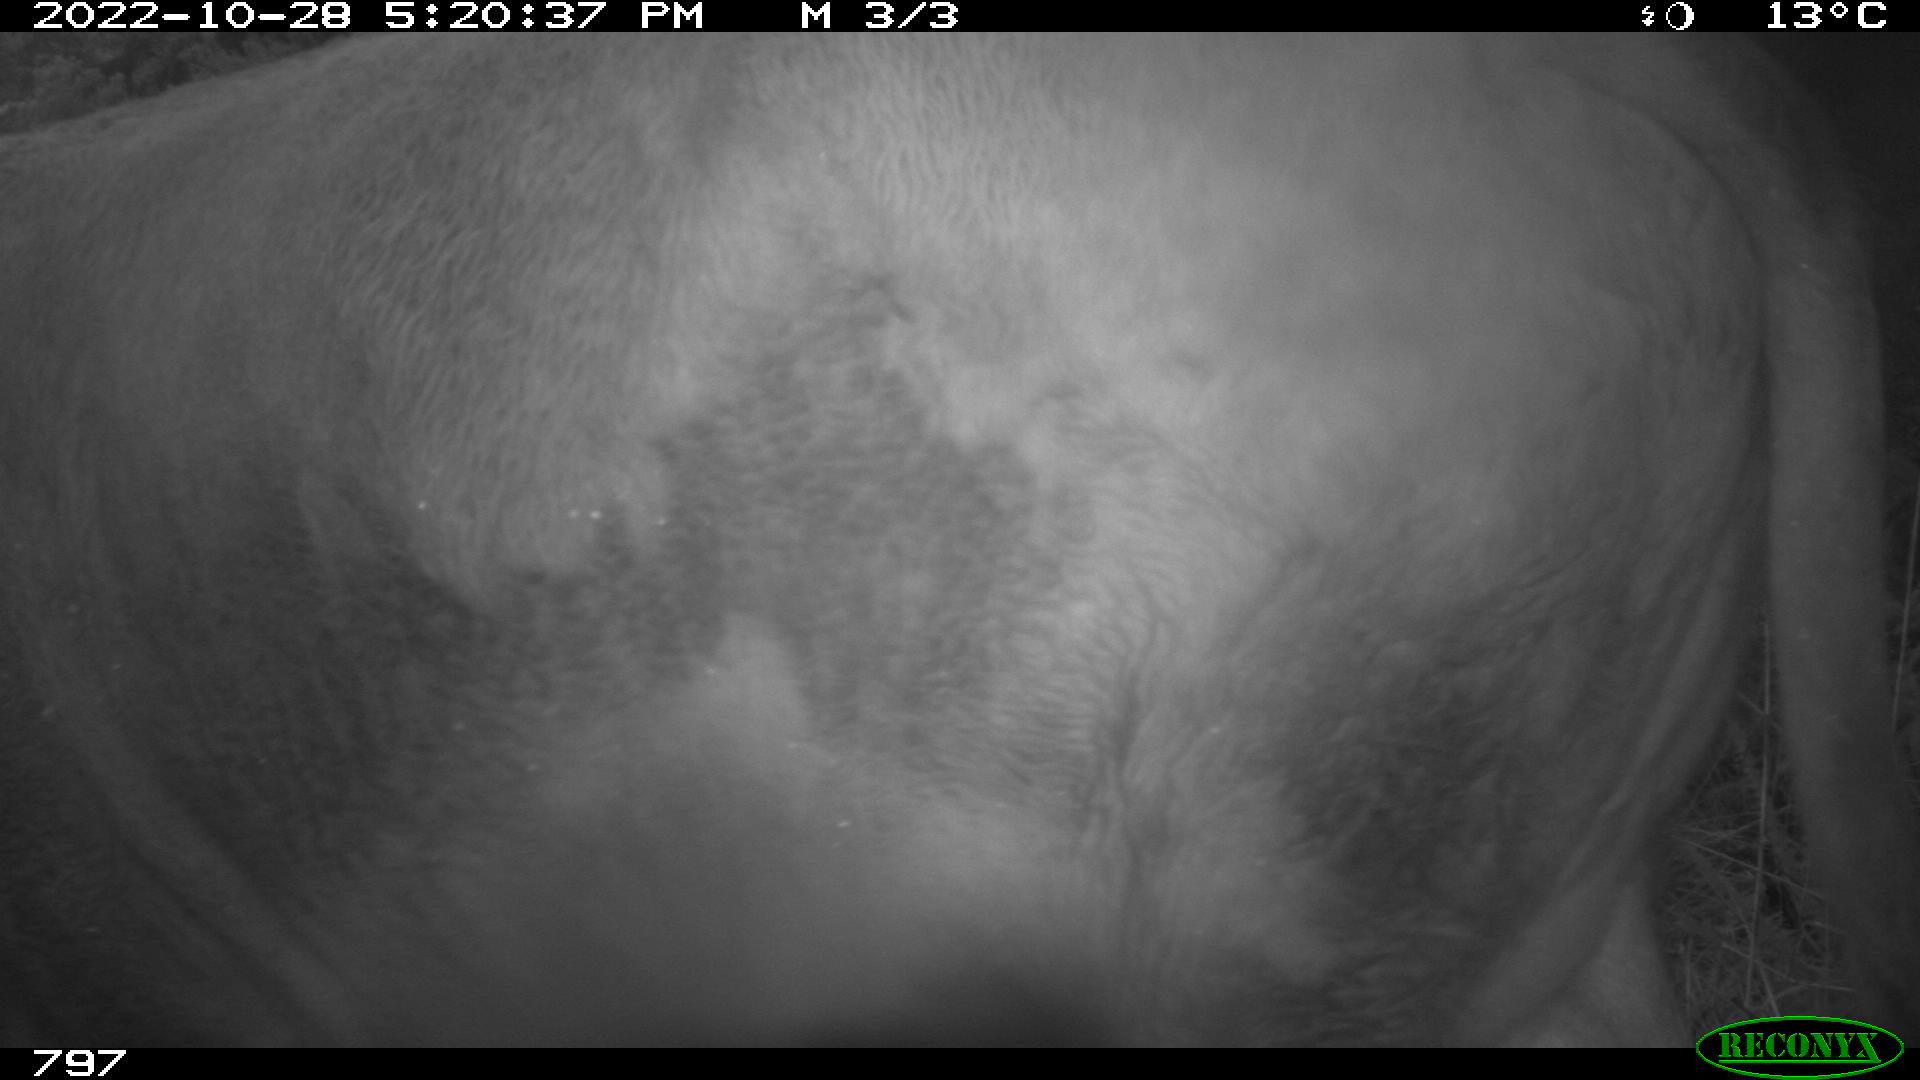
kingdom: Animalia
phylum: Chordata
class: Mammalia
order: Artiodactyla
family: Bovidae
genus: Bos
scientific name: Bos taurus
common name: Domesticated cattle
